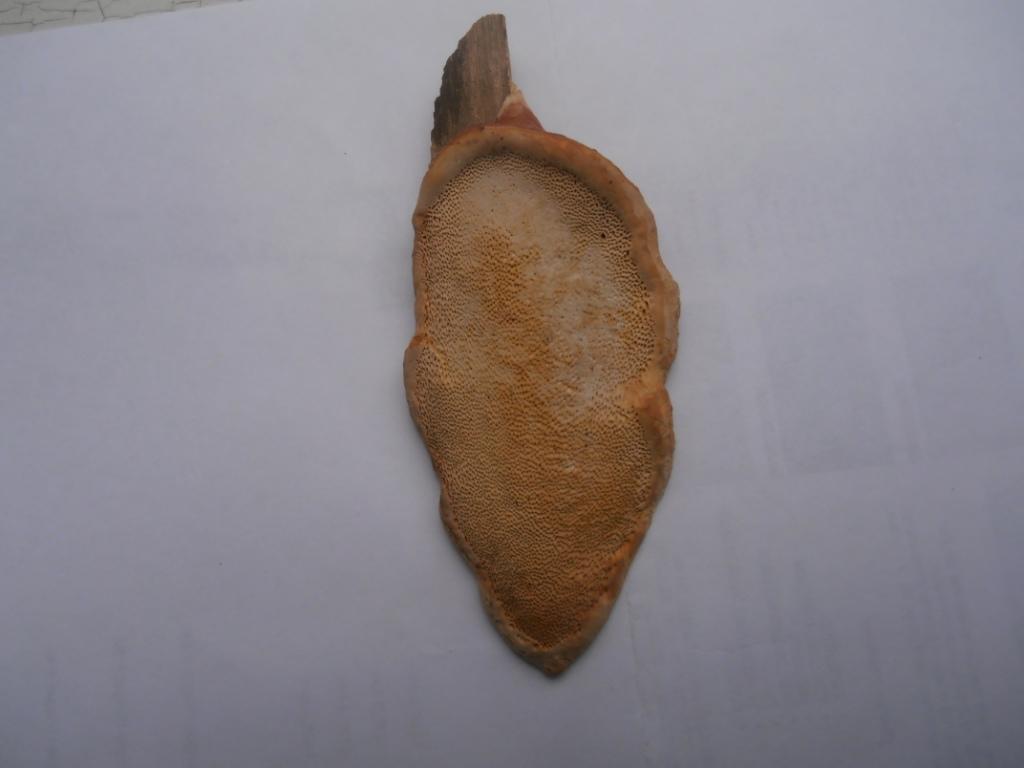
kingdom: Fungi
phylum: Basidiomycota
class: Agaricomycetes
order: Polyporales
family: Fomitopsidaceae
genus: Fomitopsis
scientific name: Fomitopsis pinicola
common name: randbæltet hovporesvamp
